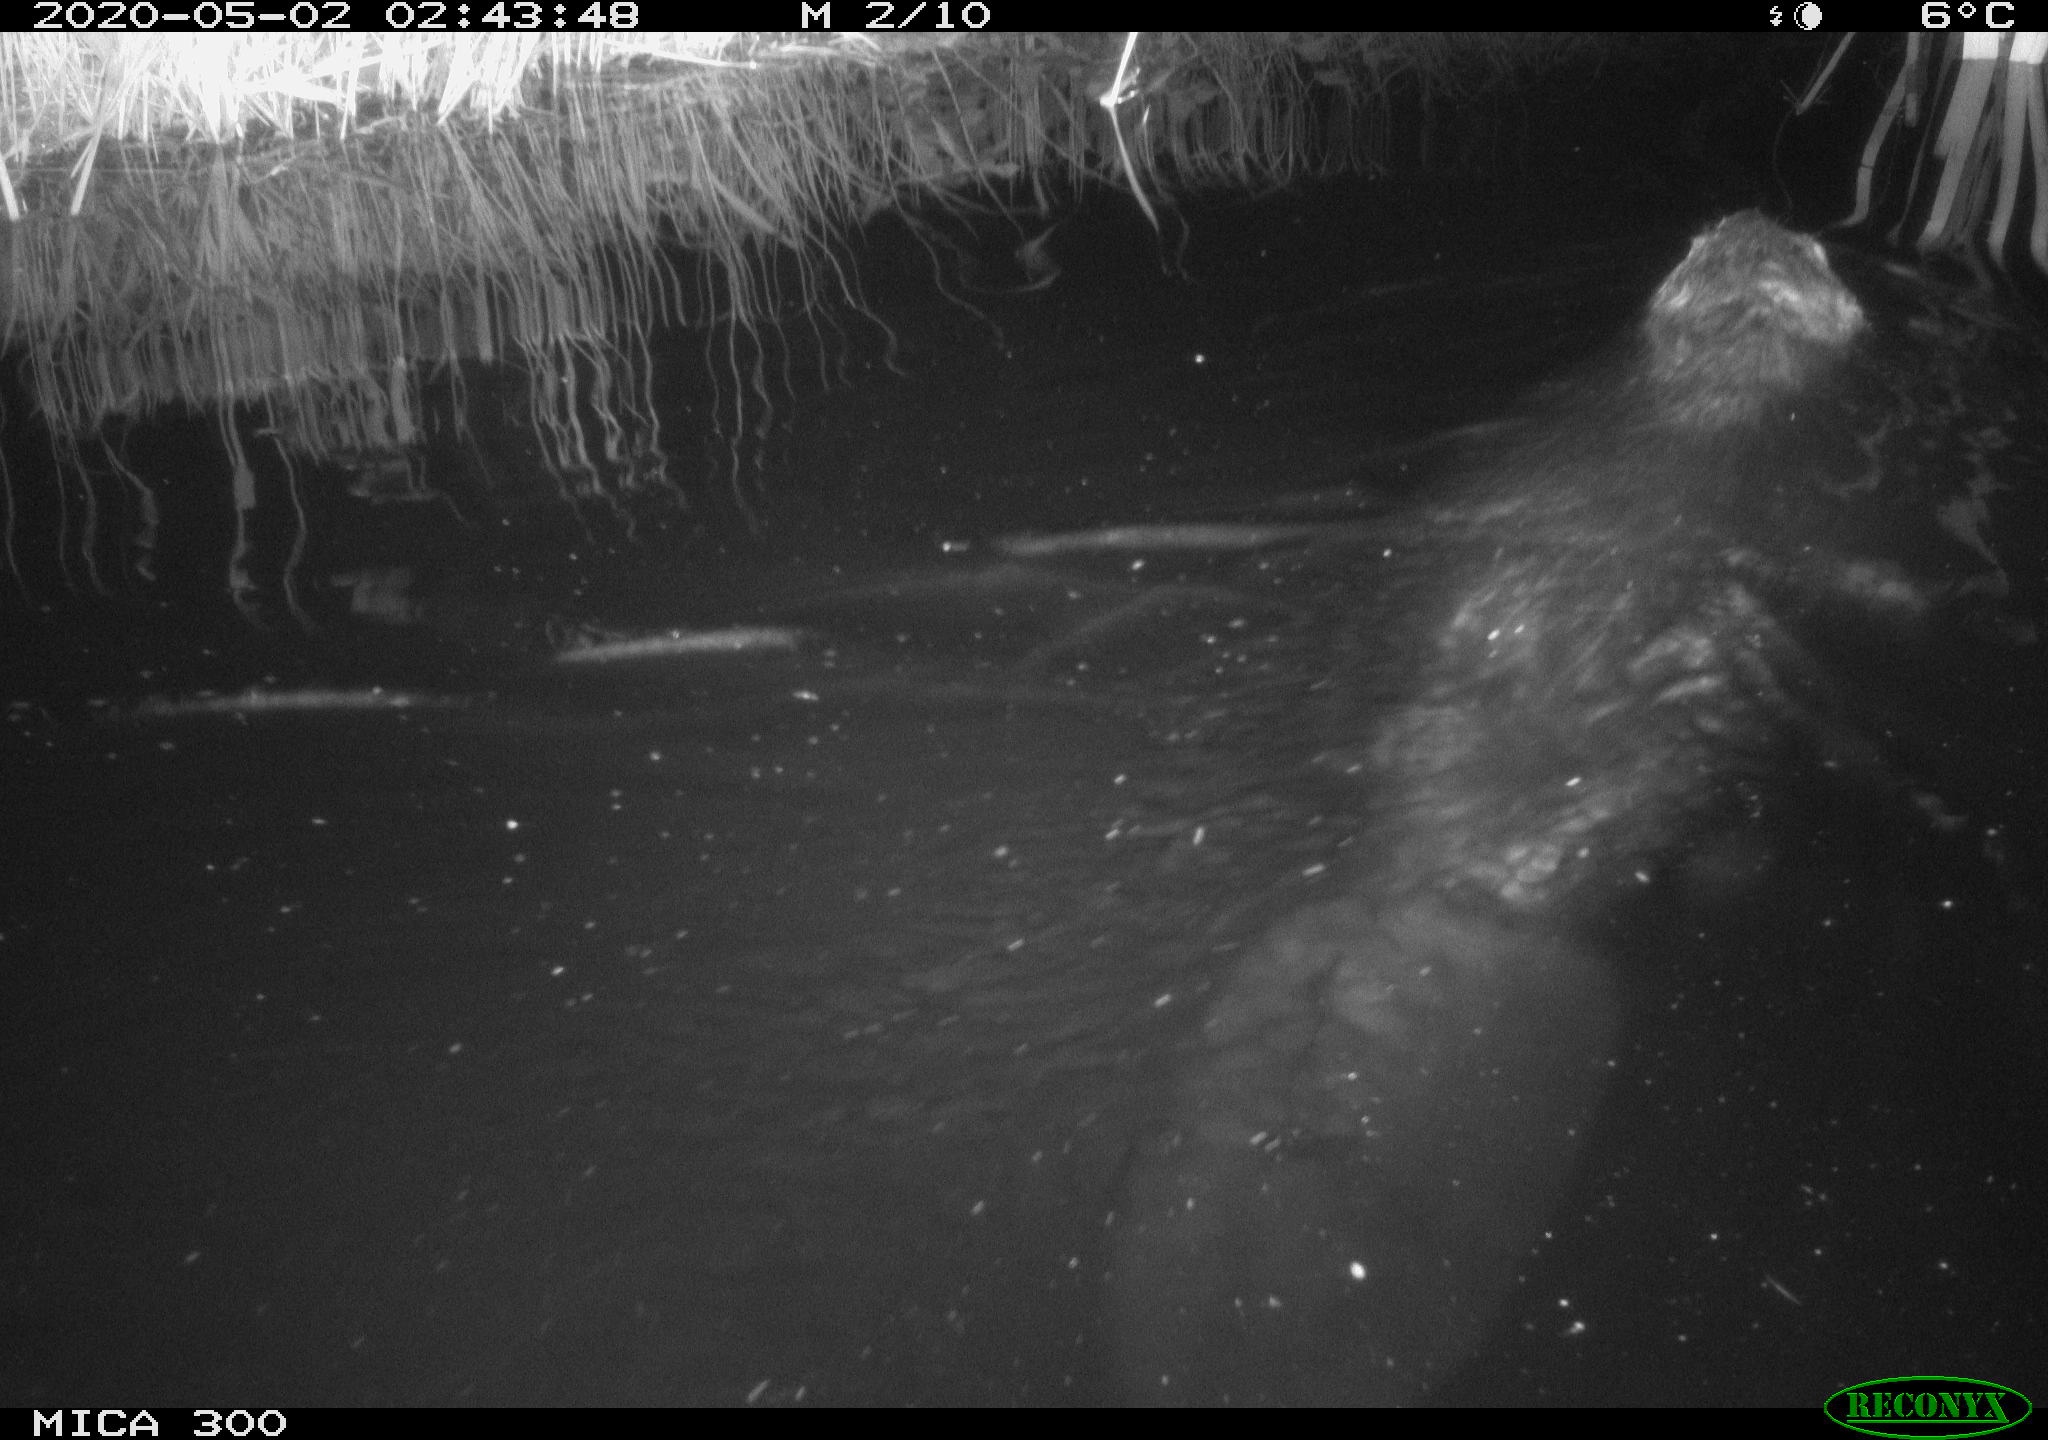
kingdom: Animalia
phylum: Chordata
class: Mammalia
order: Rodentia
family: Castoridae
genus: Castor
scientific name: Castor fiber
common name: Eurasian beaver
